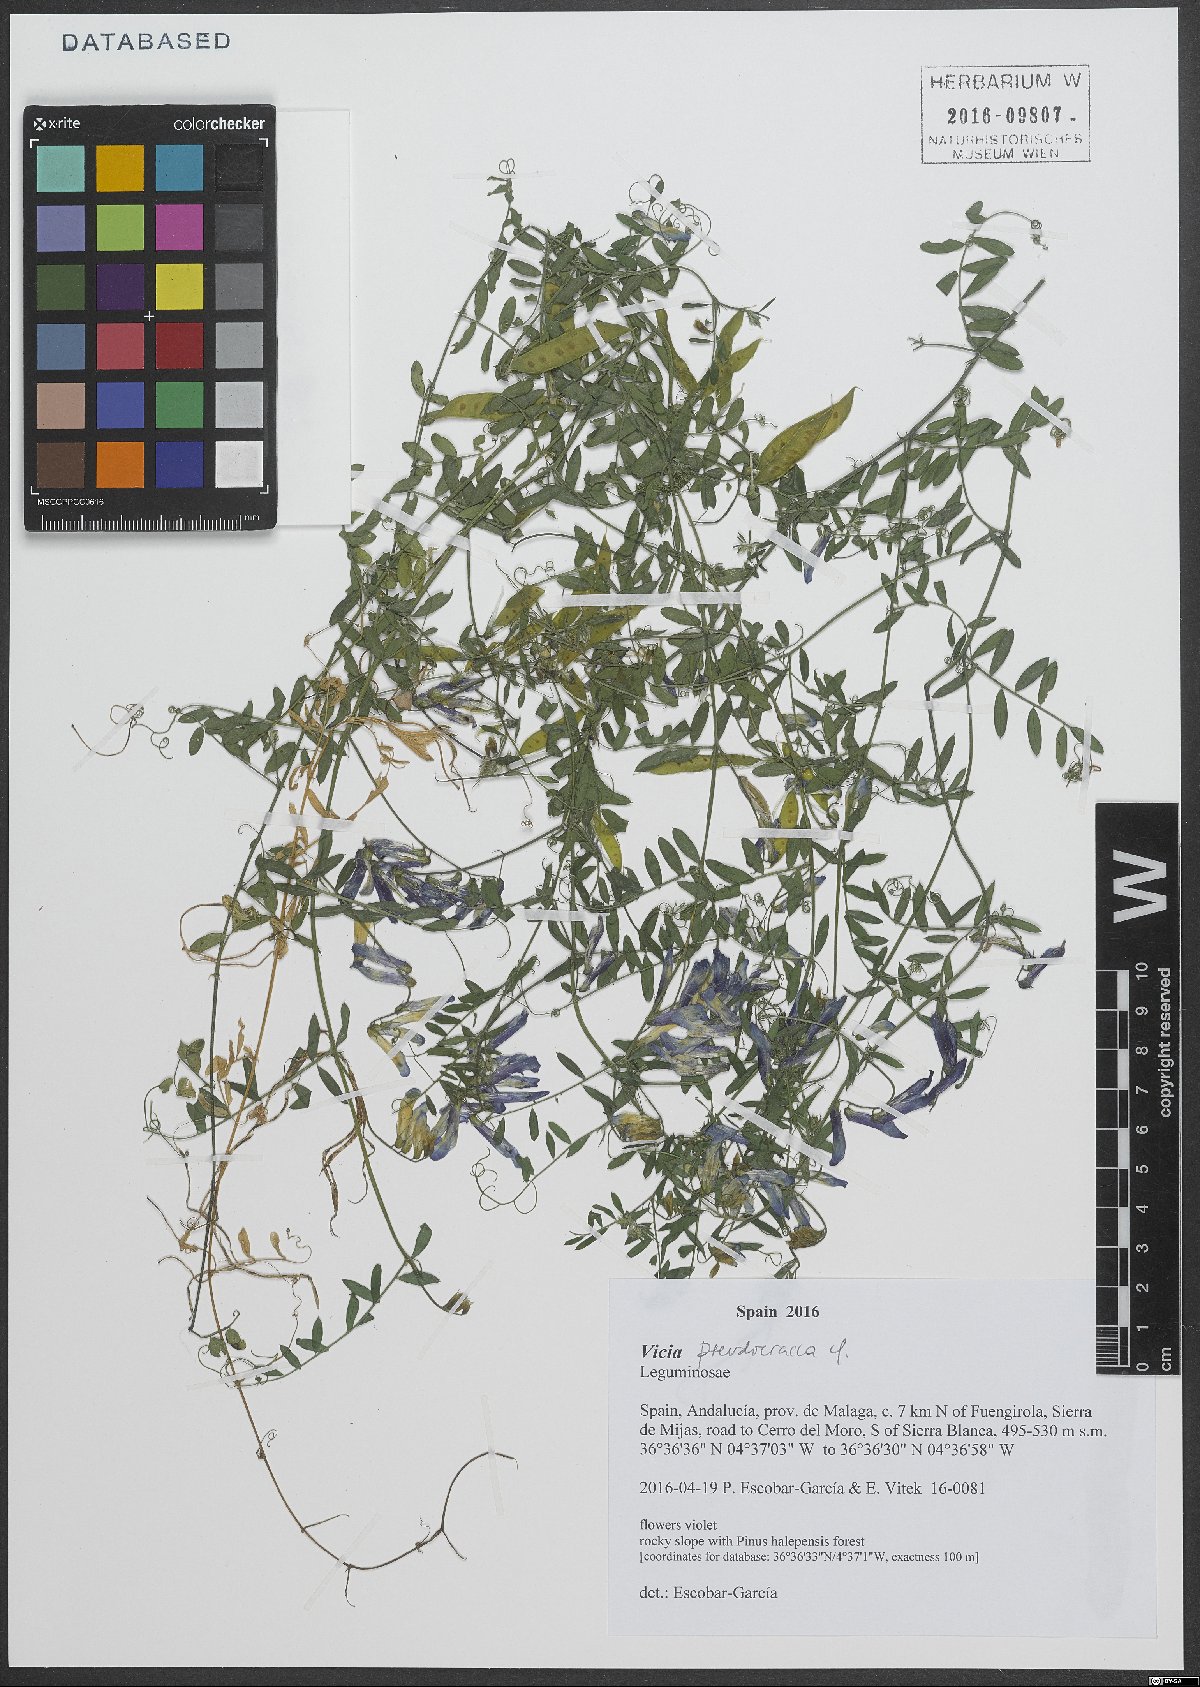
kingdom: Plantae
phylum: Tracheophyta
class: Magnoliopsida
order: Fabales
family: Fabaceae
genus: Vicia
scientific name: Vicia villosa
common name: Fodder vetch
